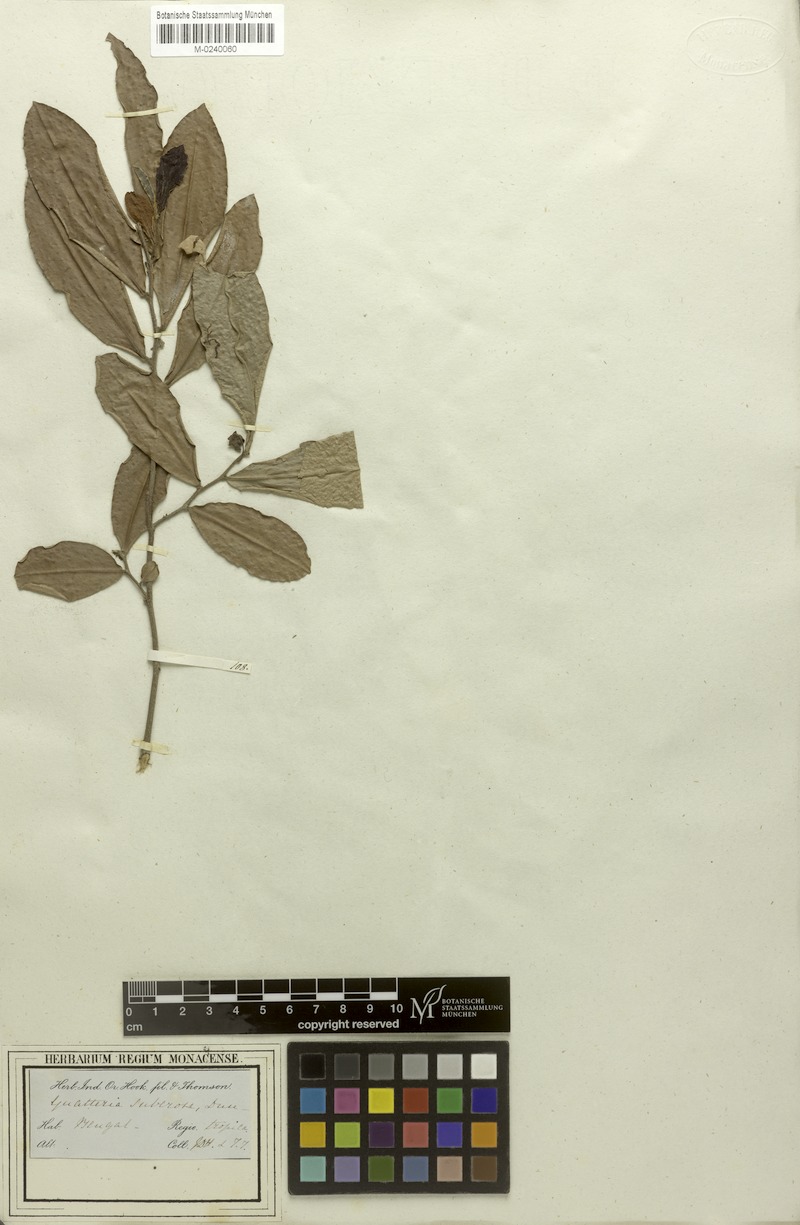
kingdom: Plantae
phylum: Tracheophyta
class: Magnoliopsida
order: Magnoliales
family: Annonaceae
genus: Polyalthia
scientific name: Polyalthia suberosa
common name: Polyalthia plant
